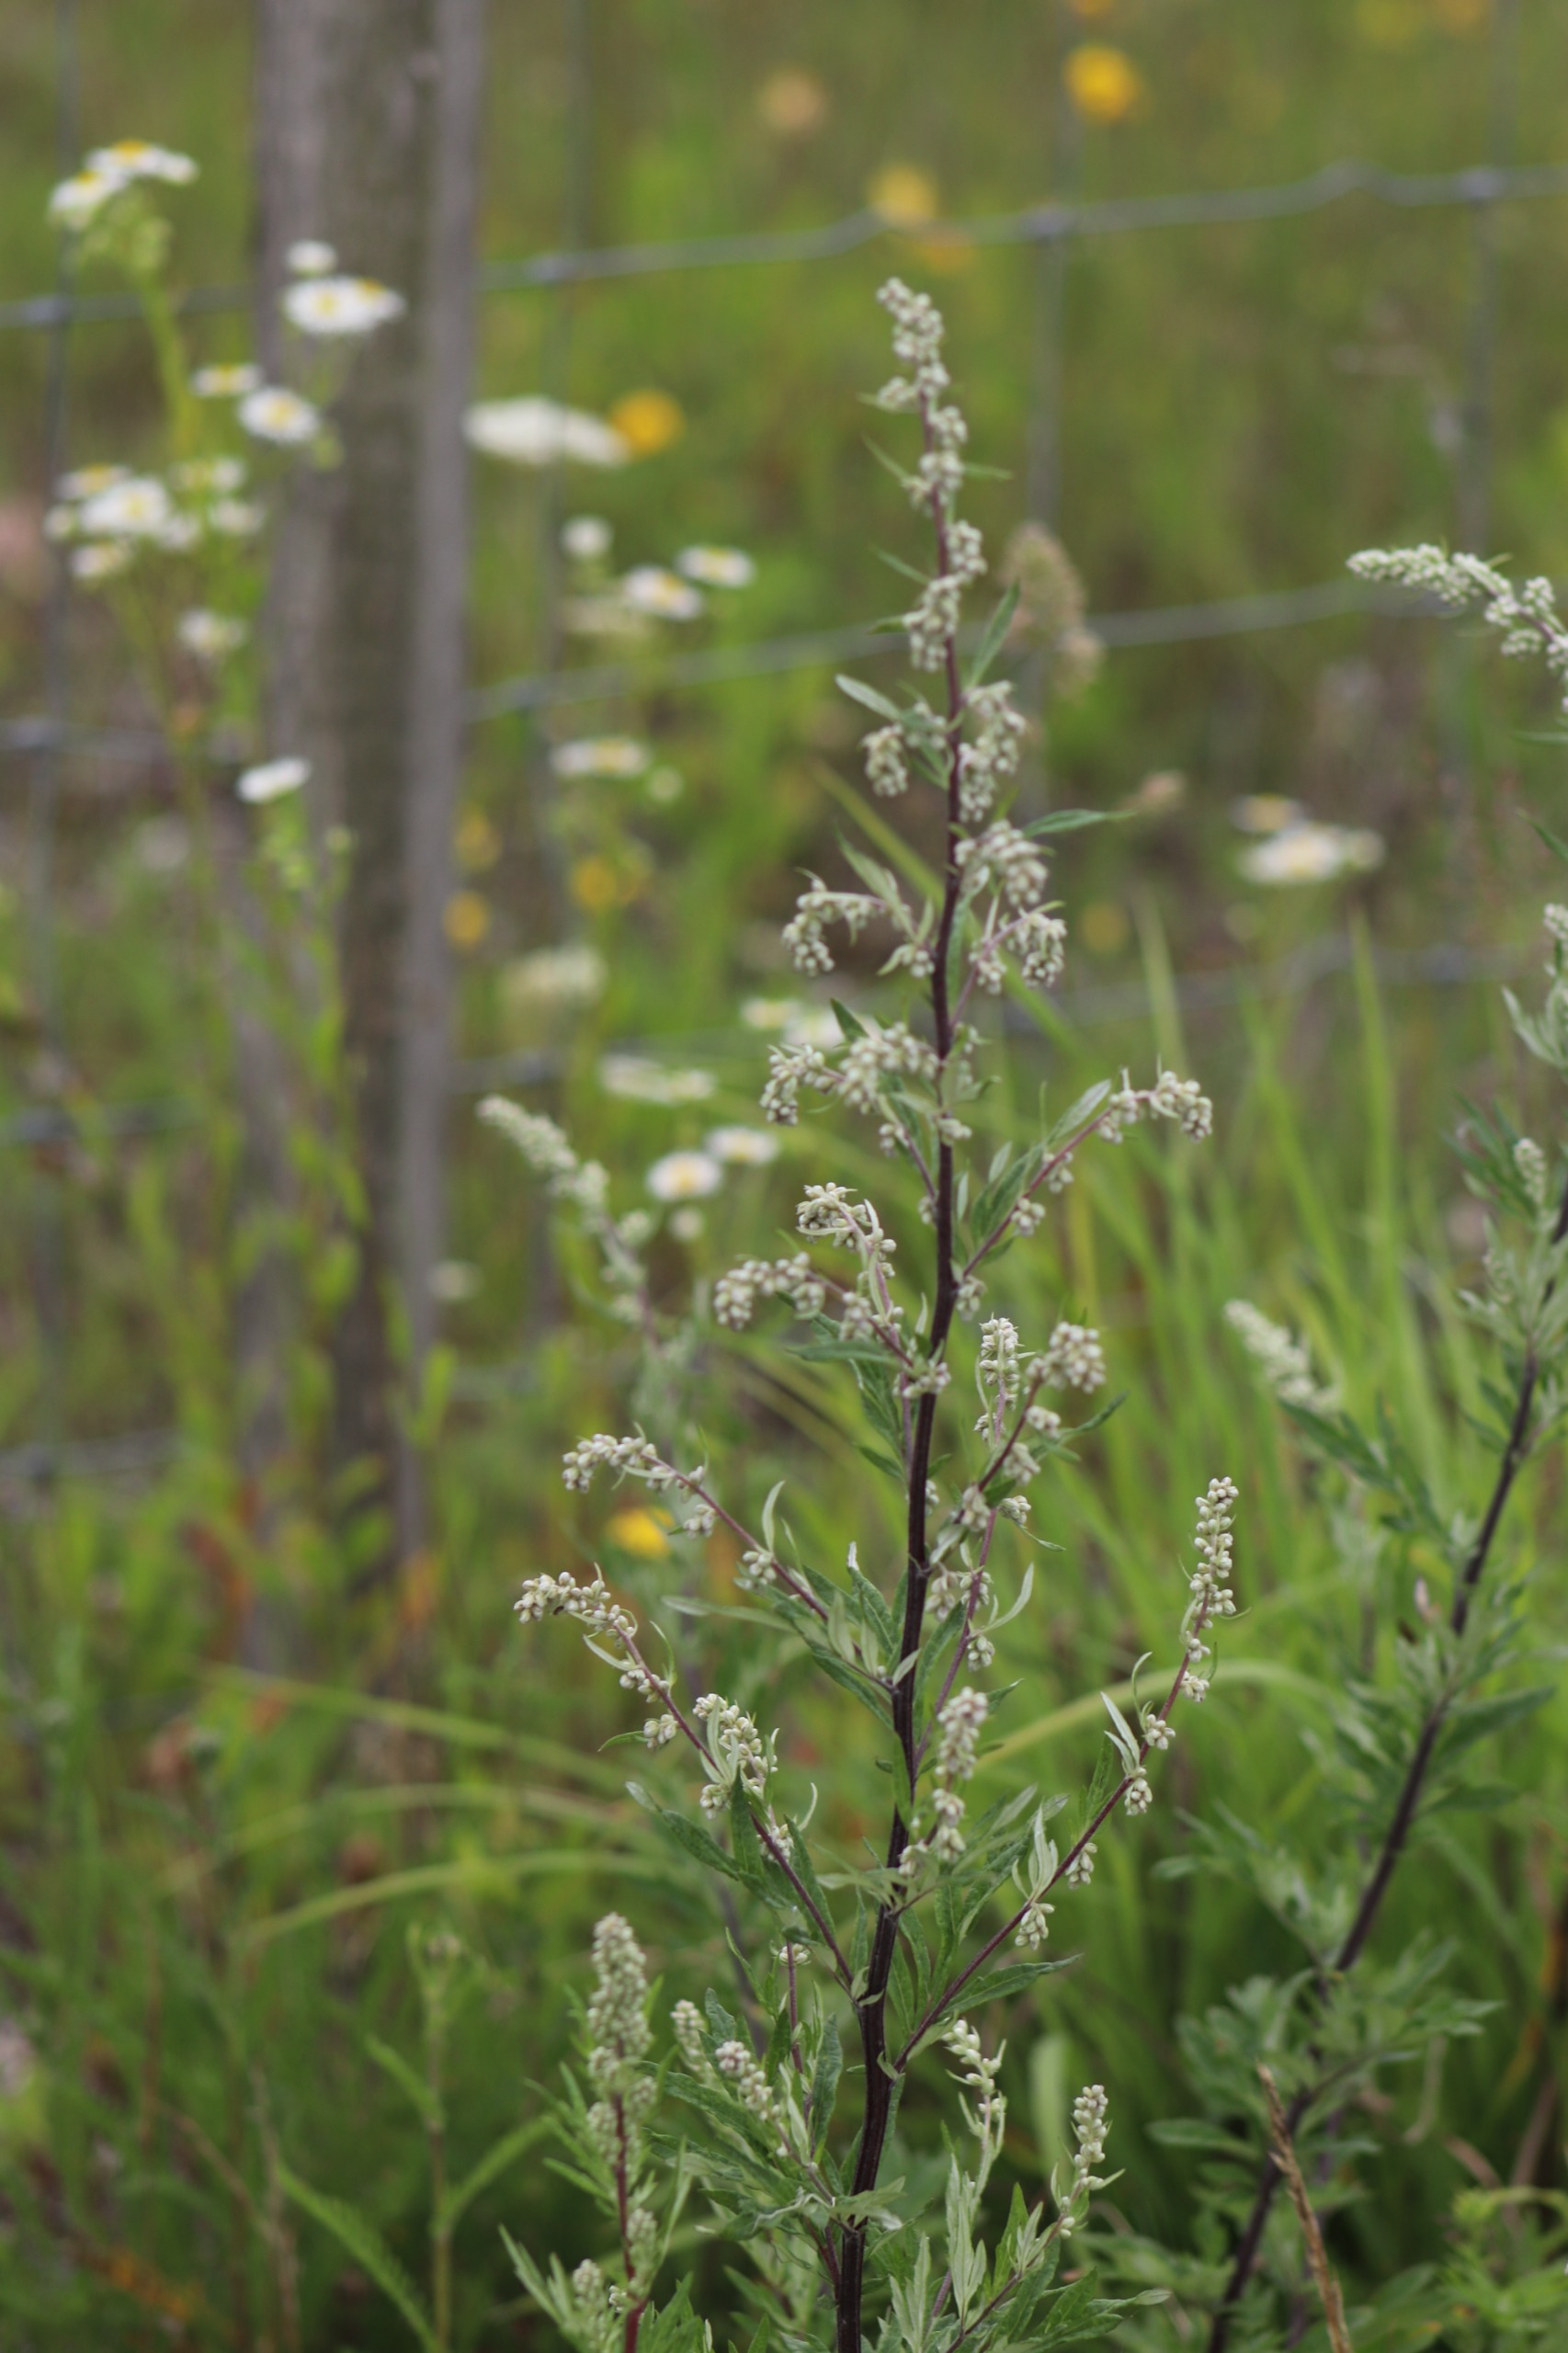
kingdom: Plantae
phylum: Tracheophyta
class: Magnoliopsida
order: Asterales
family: Asteraceae
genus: Artemisia
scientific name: Artemisia vulgaris
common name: Grå-bynke
